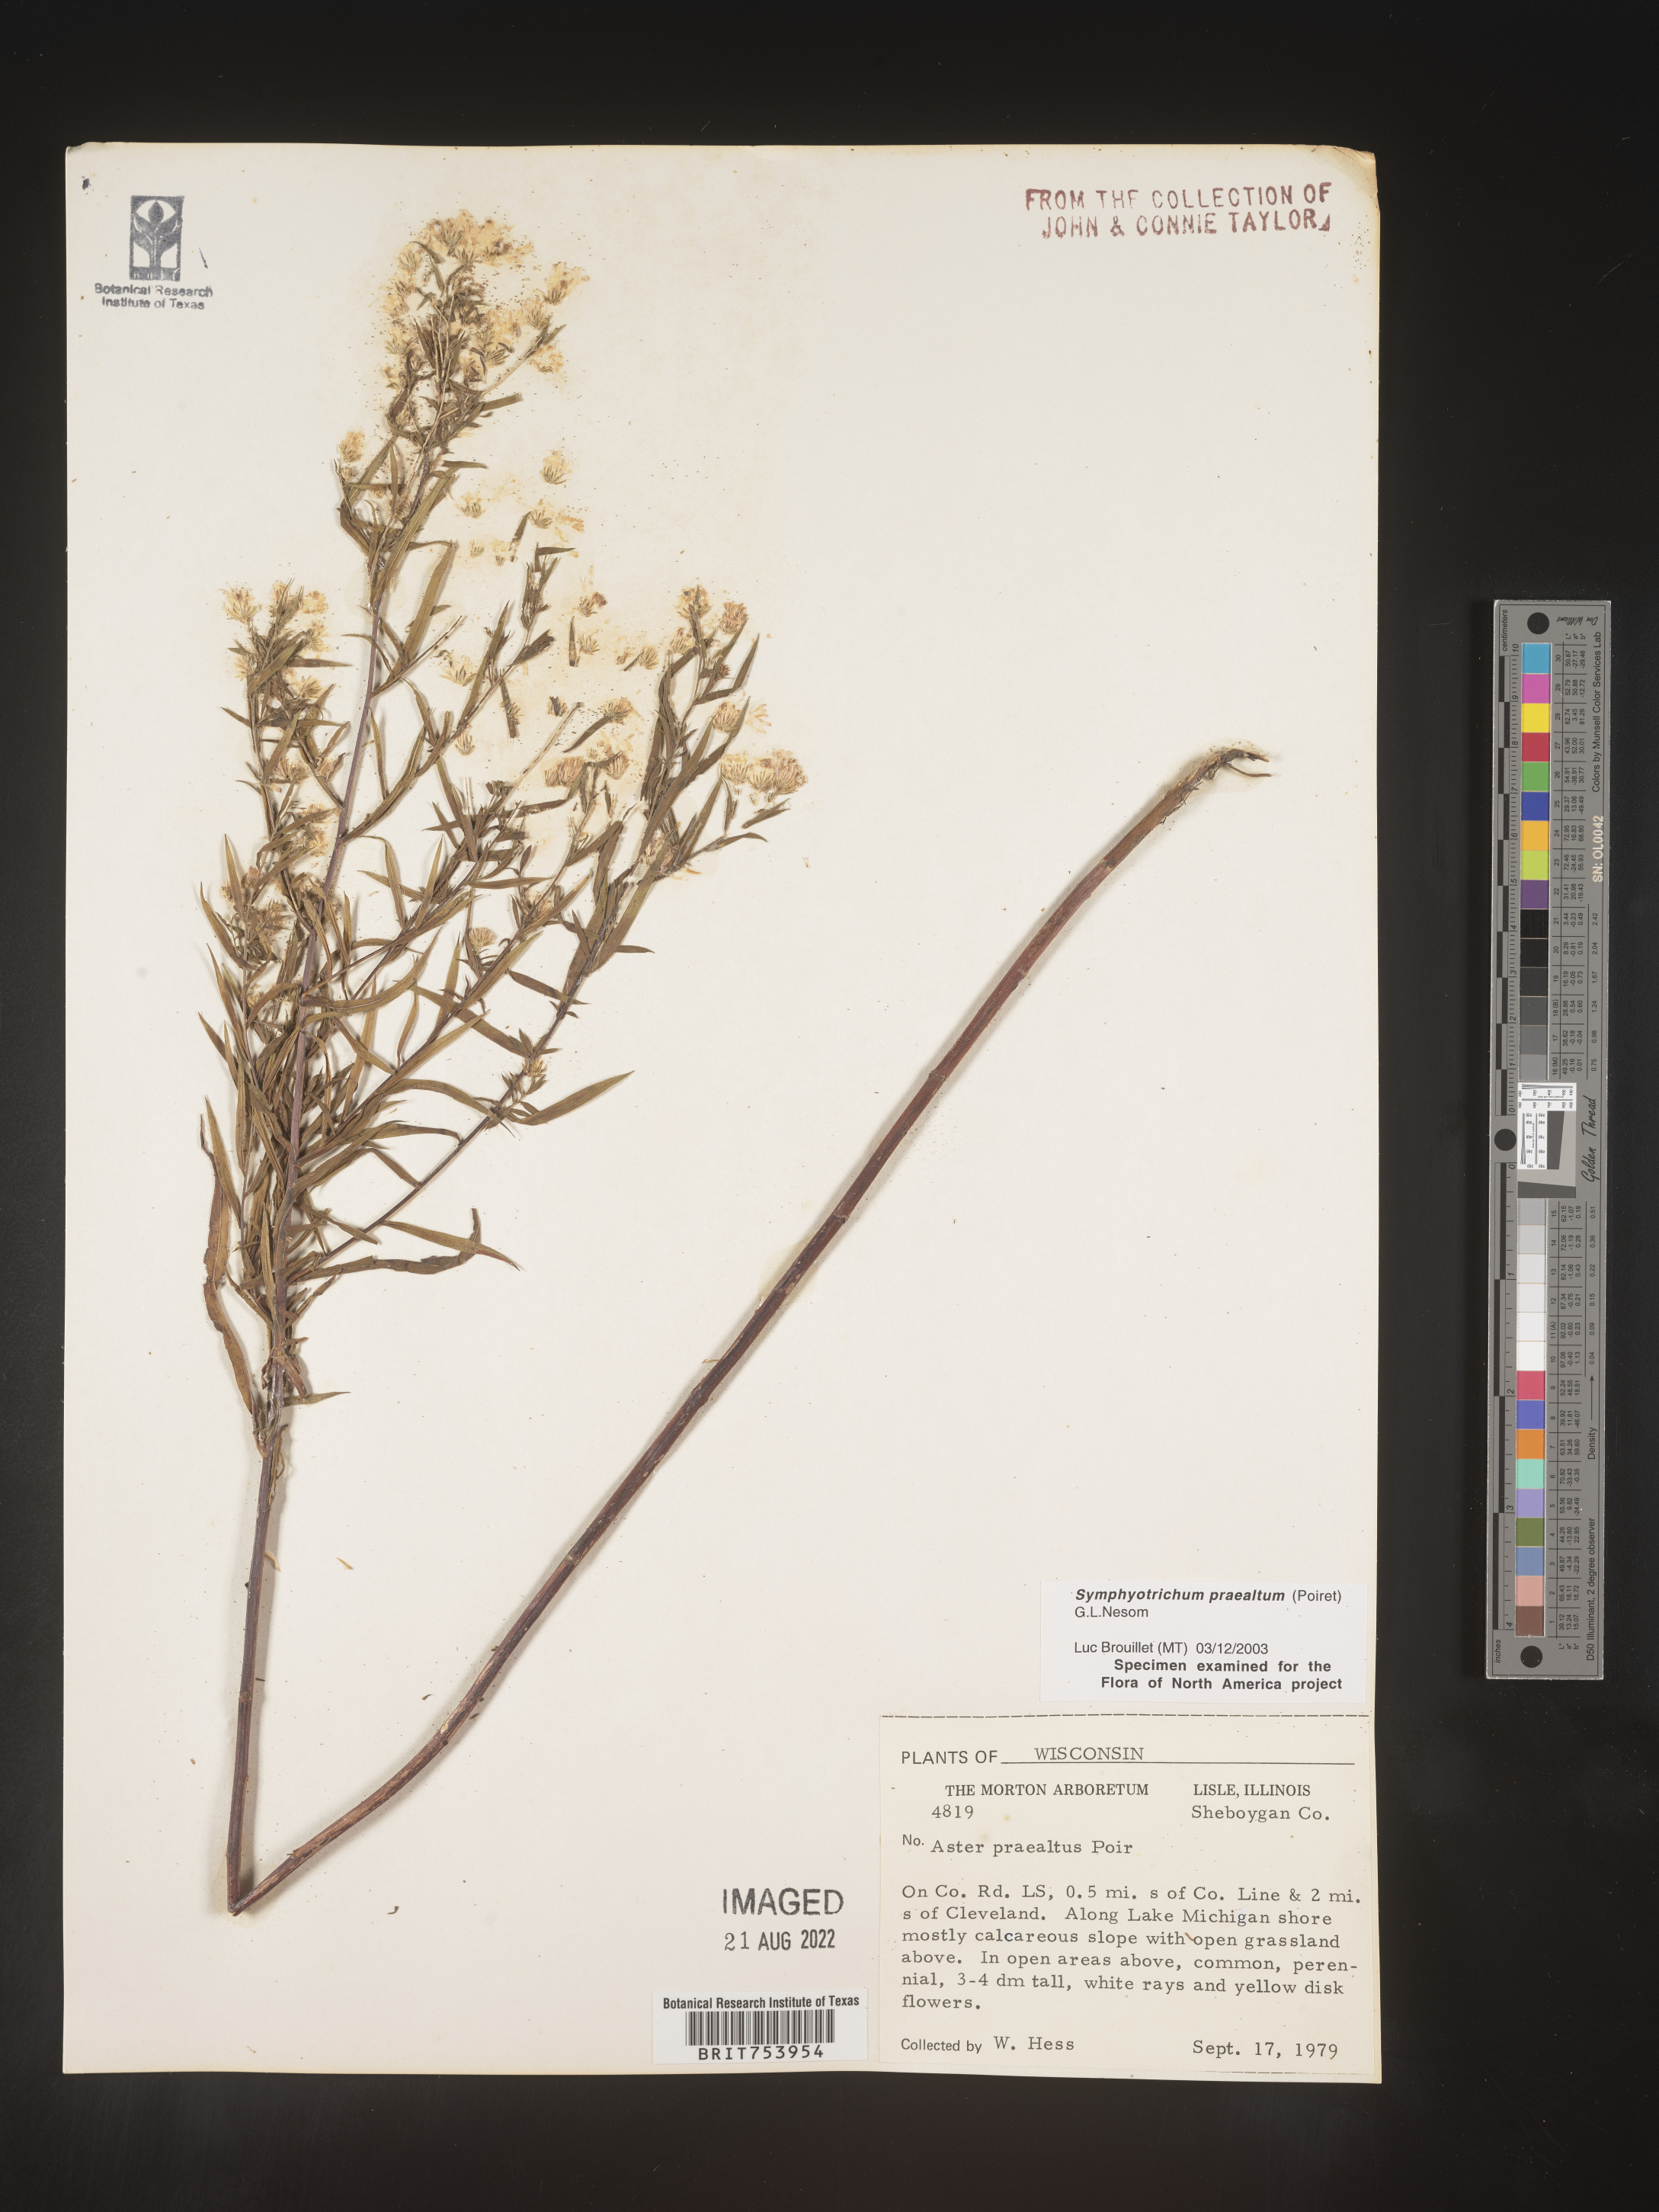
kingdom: Plantae
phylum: Tracheophyta
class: Magnoliopsida
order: Asterales
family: Asteraceae
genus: Symphyotrichum
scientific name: Symphyotrichum praealtum
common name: Willow aster
